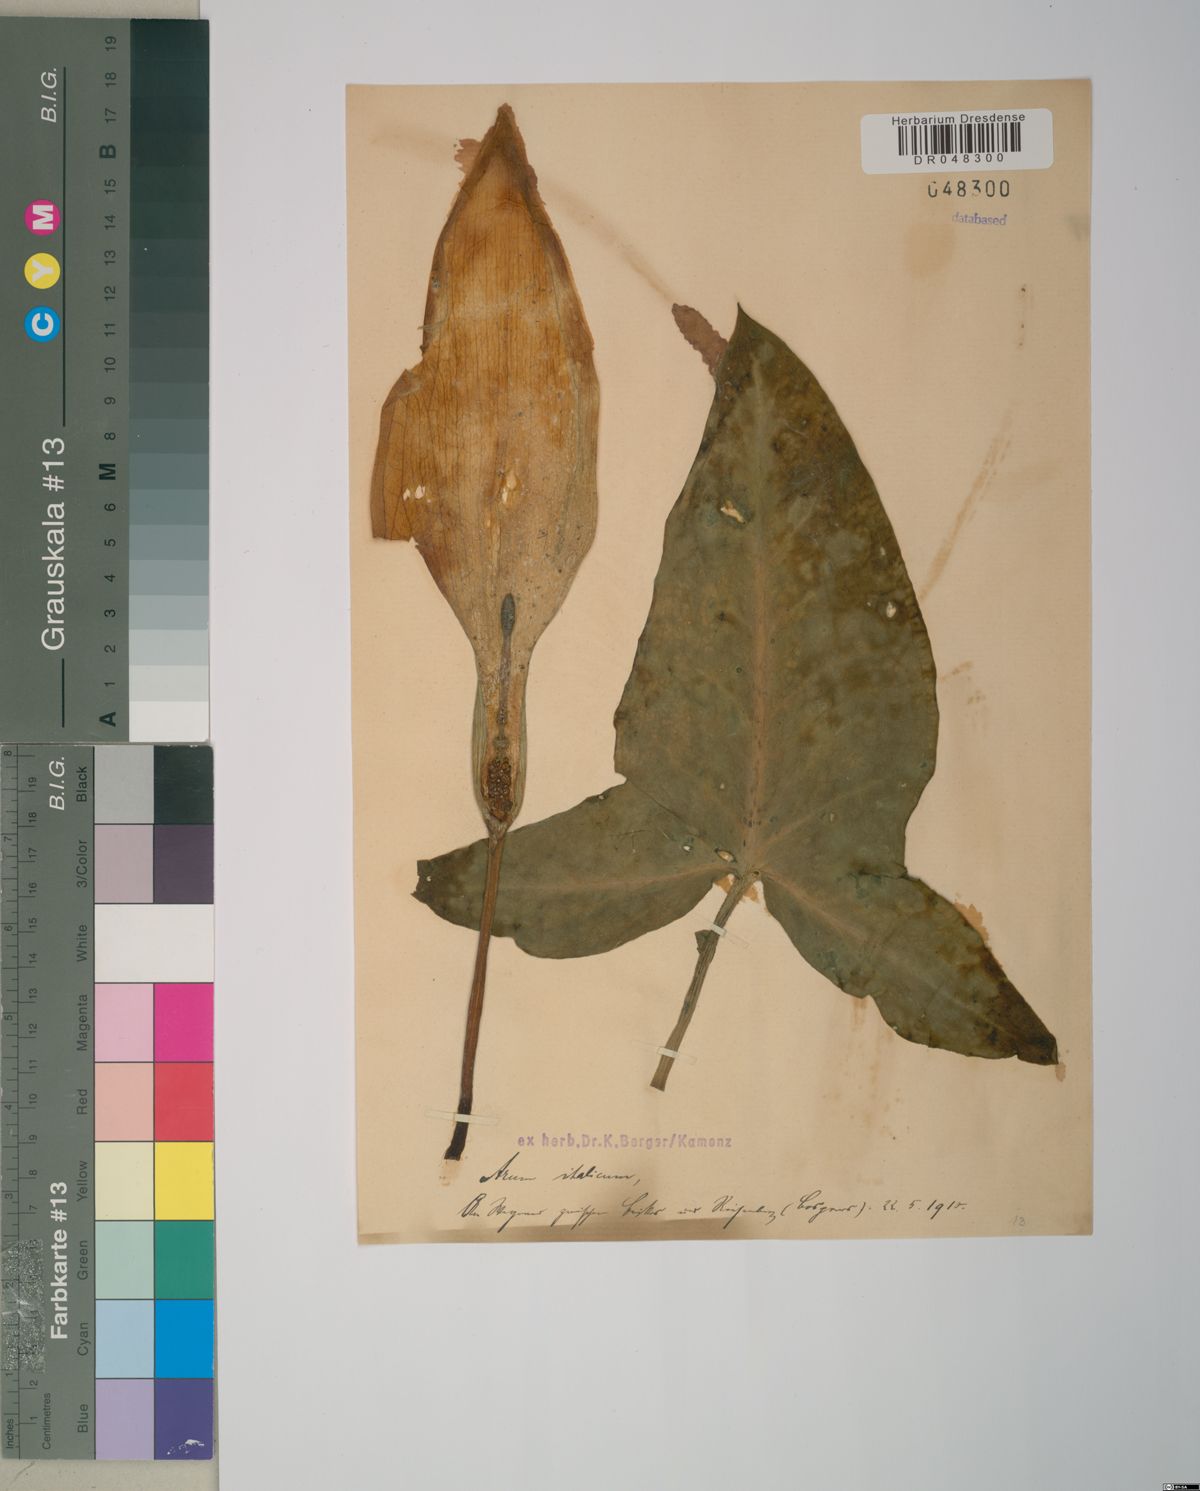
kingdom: Plantae
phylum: Tracheophyta
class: Liliopsida
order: Alismatales
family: Araceae
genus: Arum
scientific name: Arum italicum
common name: Italian lords-and-ladies
